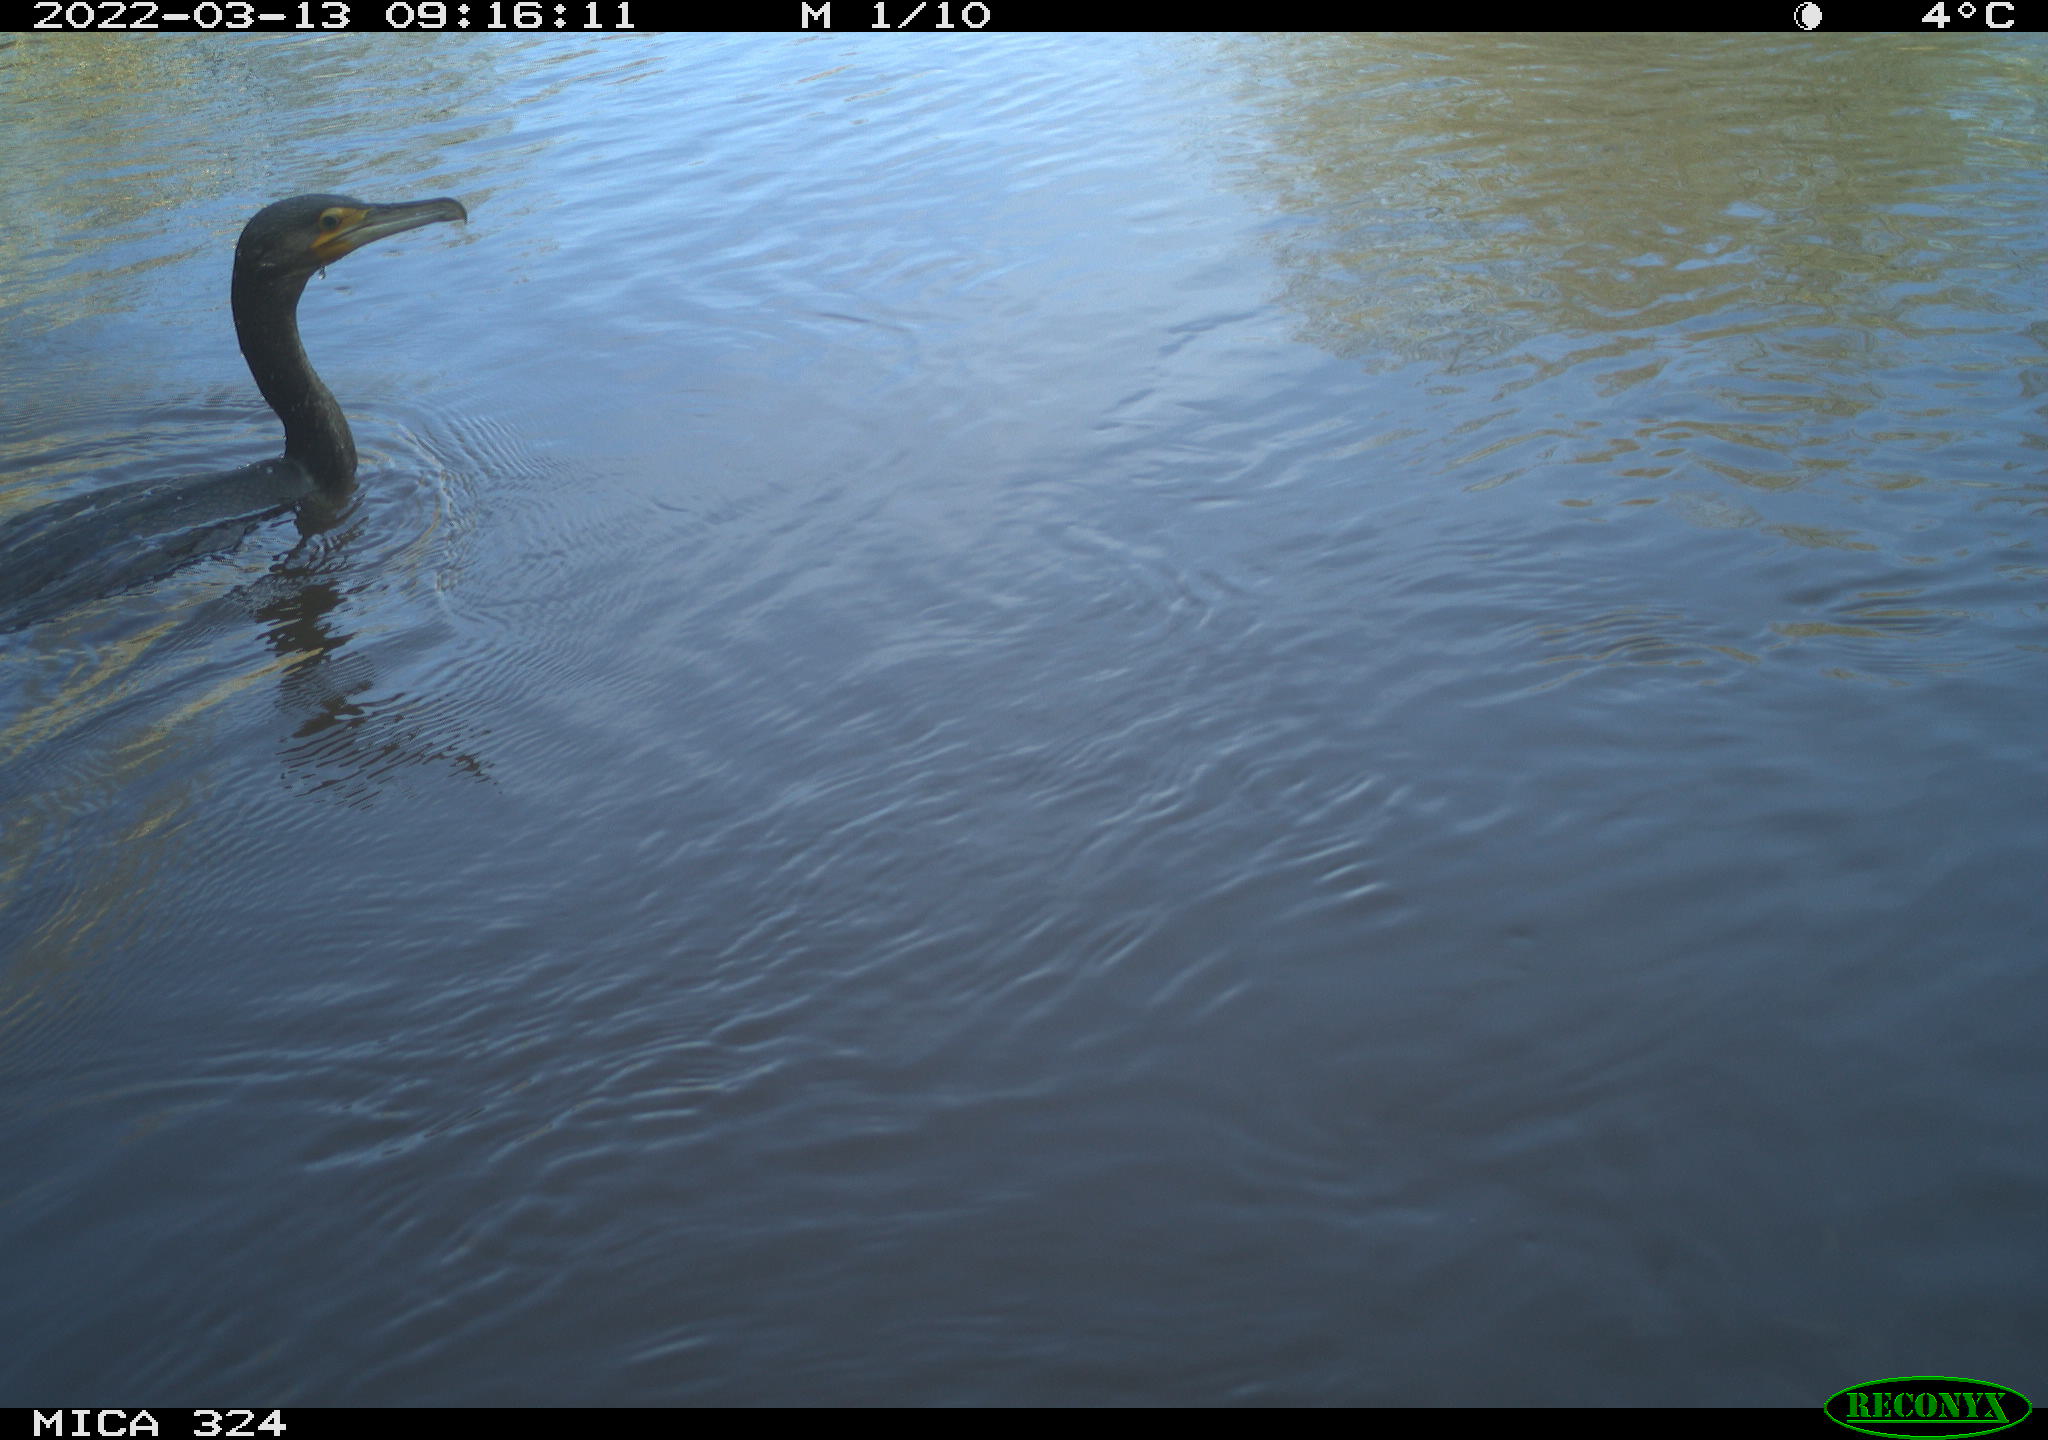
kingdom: Animalia
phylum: Chordata
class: Aves
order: Suliformes
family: Phalacrocoracidae
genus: Phalacrocorax
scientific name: Phalacrocorax carbo
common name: Great cormorant
